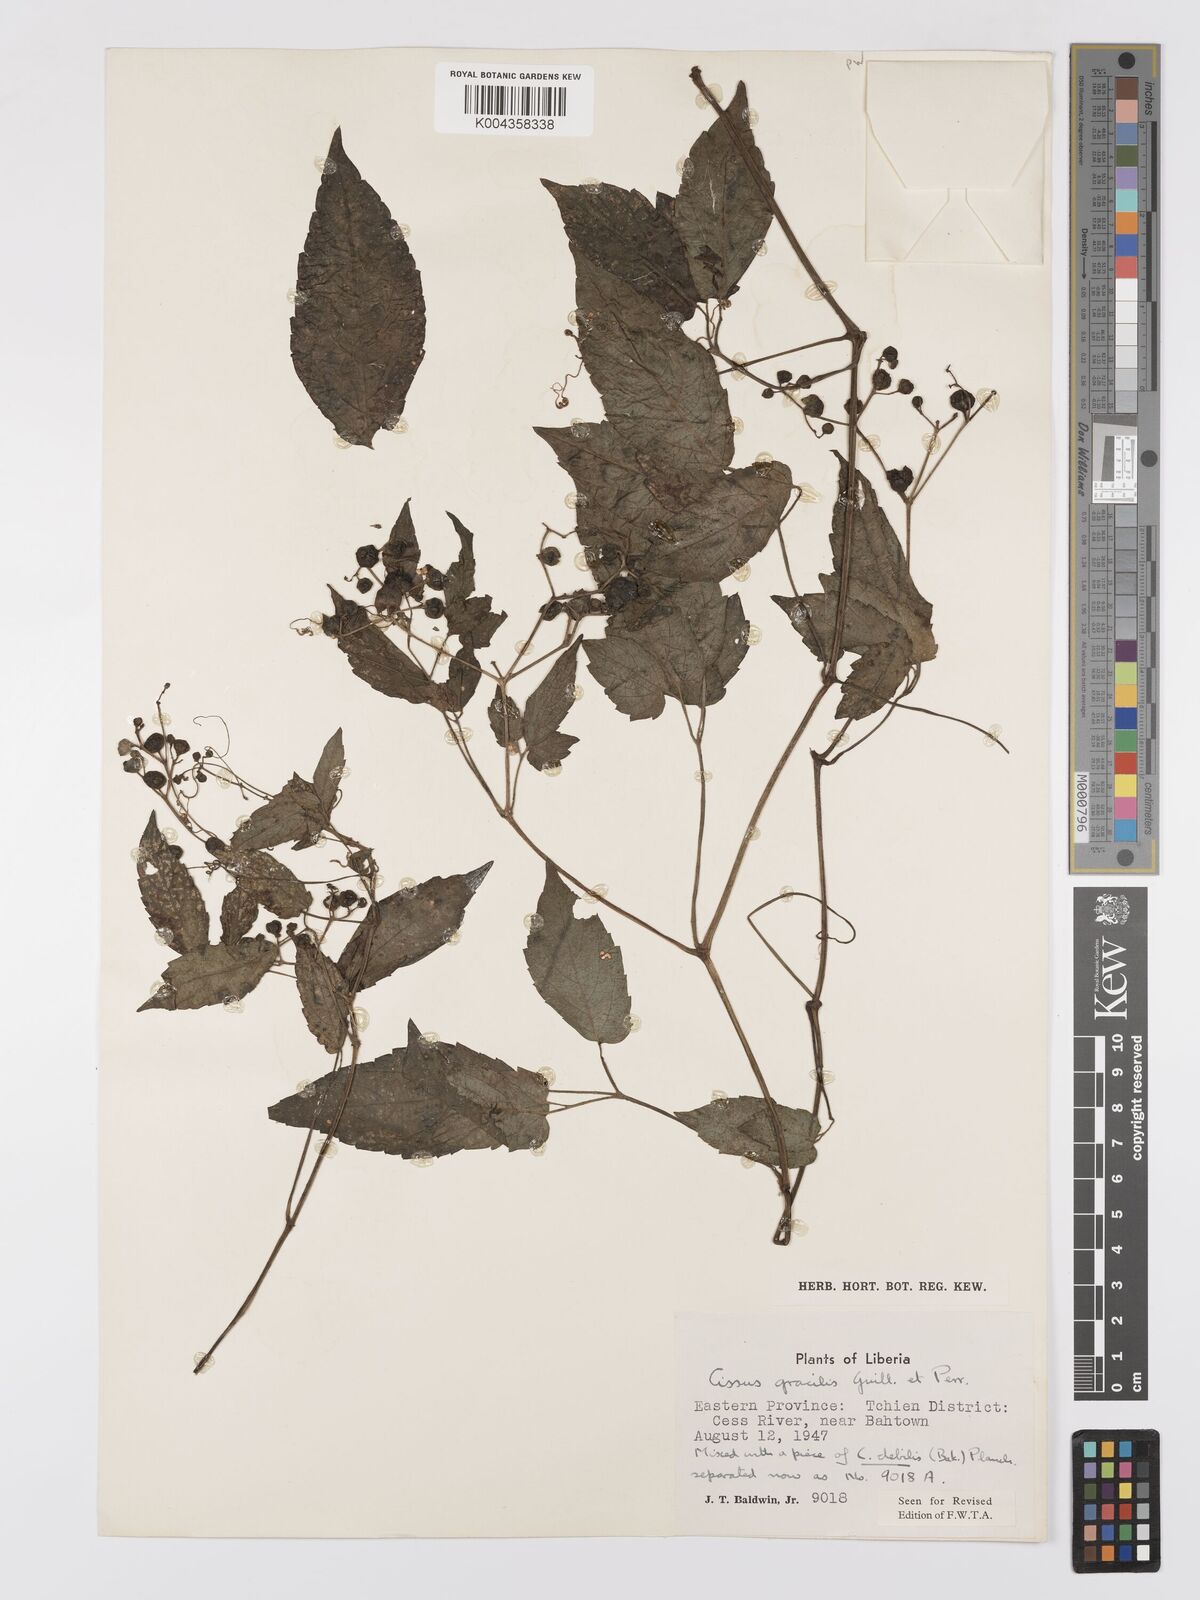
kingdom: Plantae
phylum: Tracheophyta
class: Magnoliopsida
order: Vitales
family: Vitaceae
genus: Afrocayratia
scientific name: Afrocayratia gracilis
